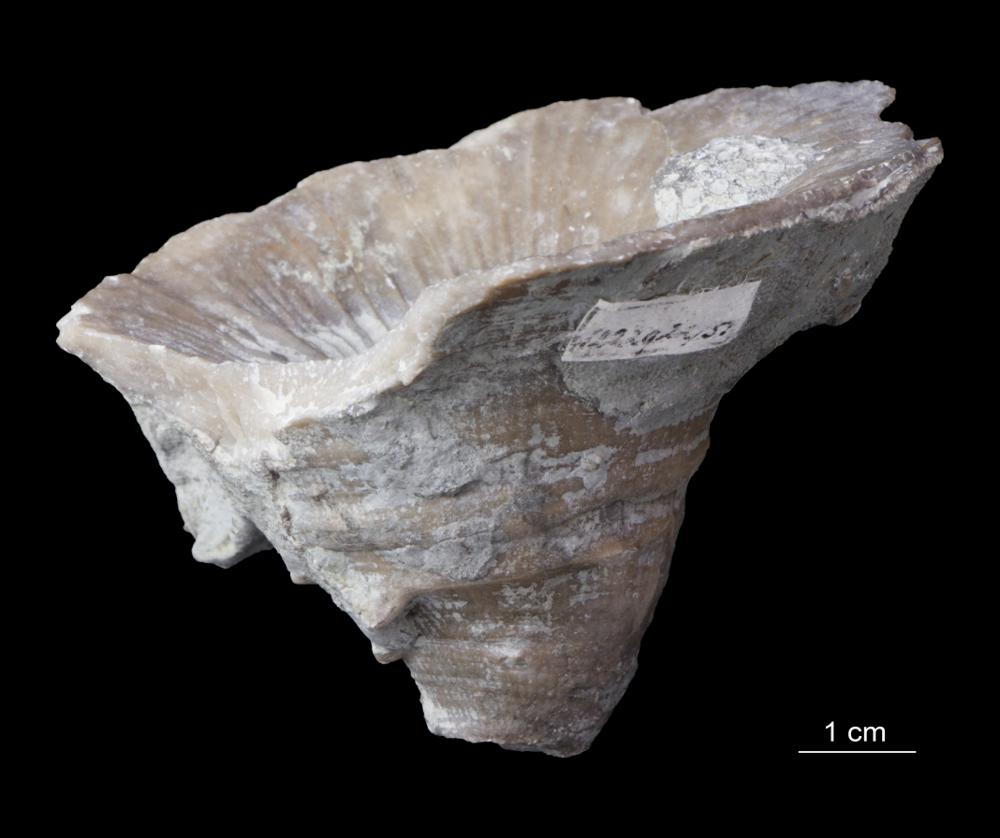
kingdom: Animalia
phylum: Cnidaria
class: Anthozoa
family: Ketophyllidae
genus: Omphyma
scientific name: Omphyma turbinata
